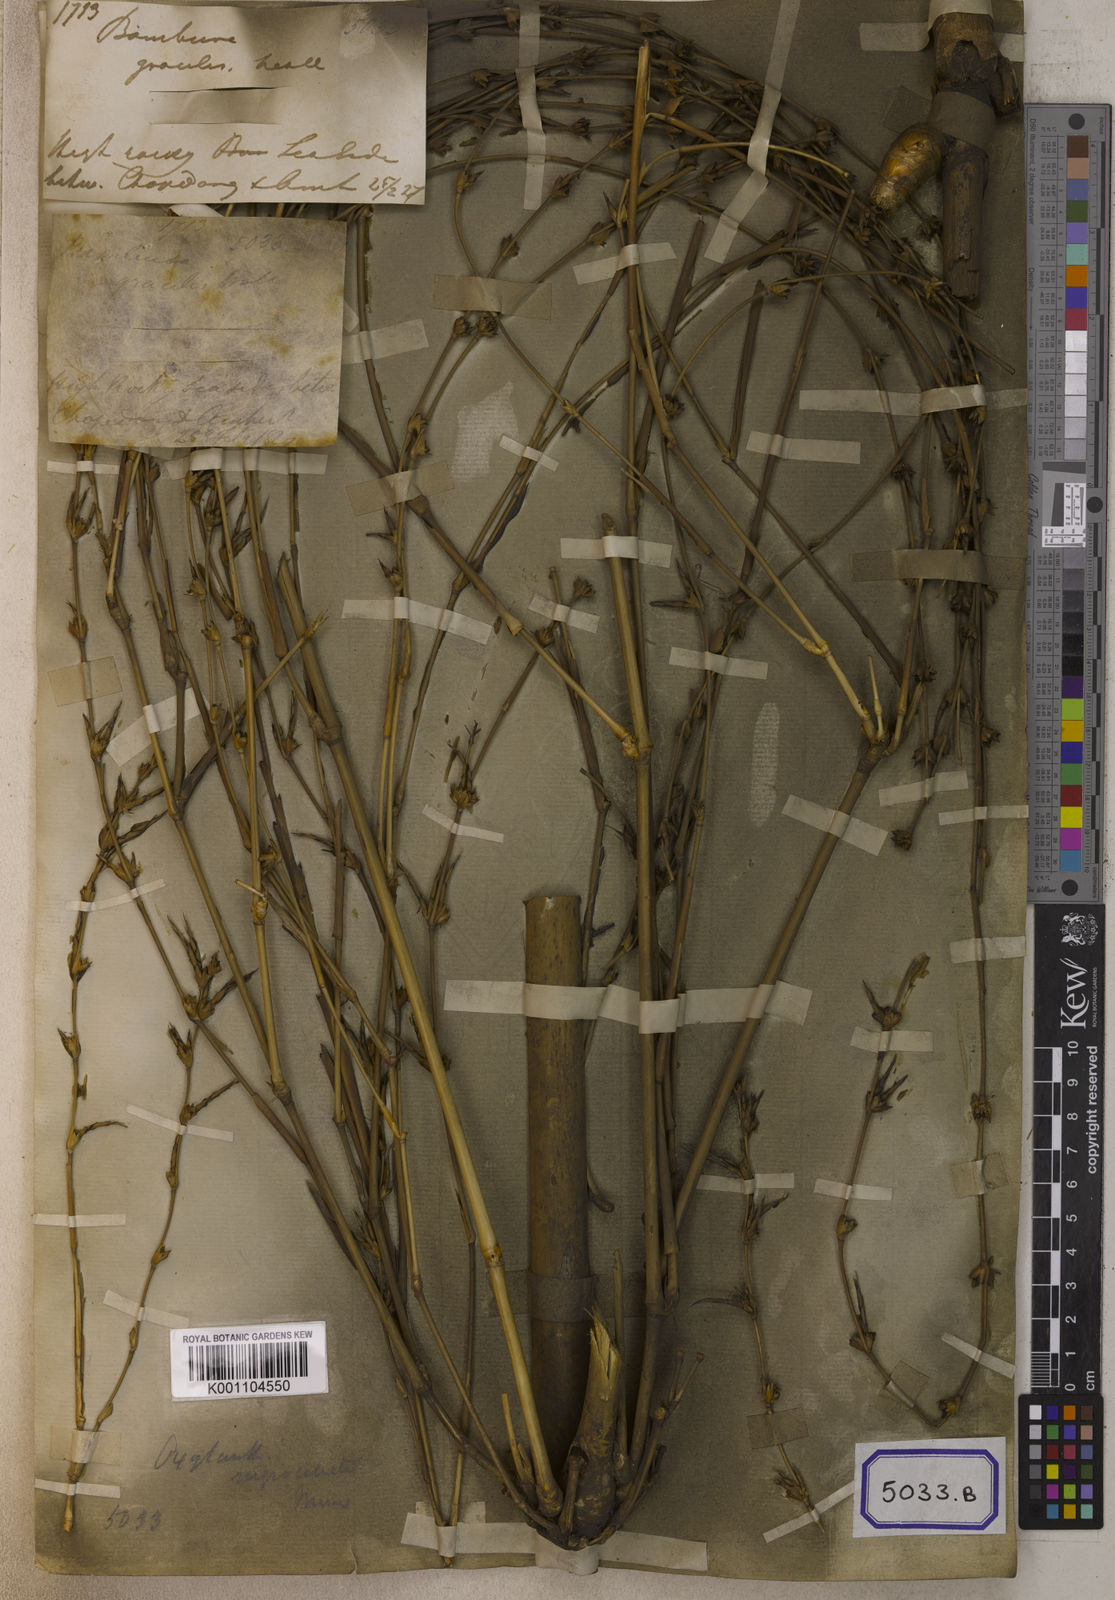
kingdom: Plantae
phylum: Tracheophyta
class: Liliopsida
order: Poales
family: Poaceae
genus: Bambusa
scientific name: Bambusa
